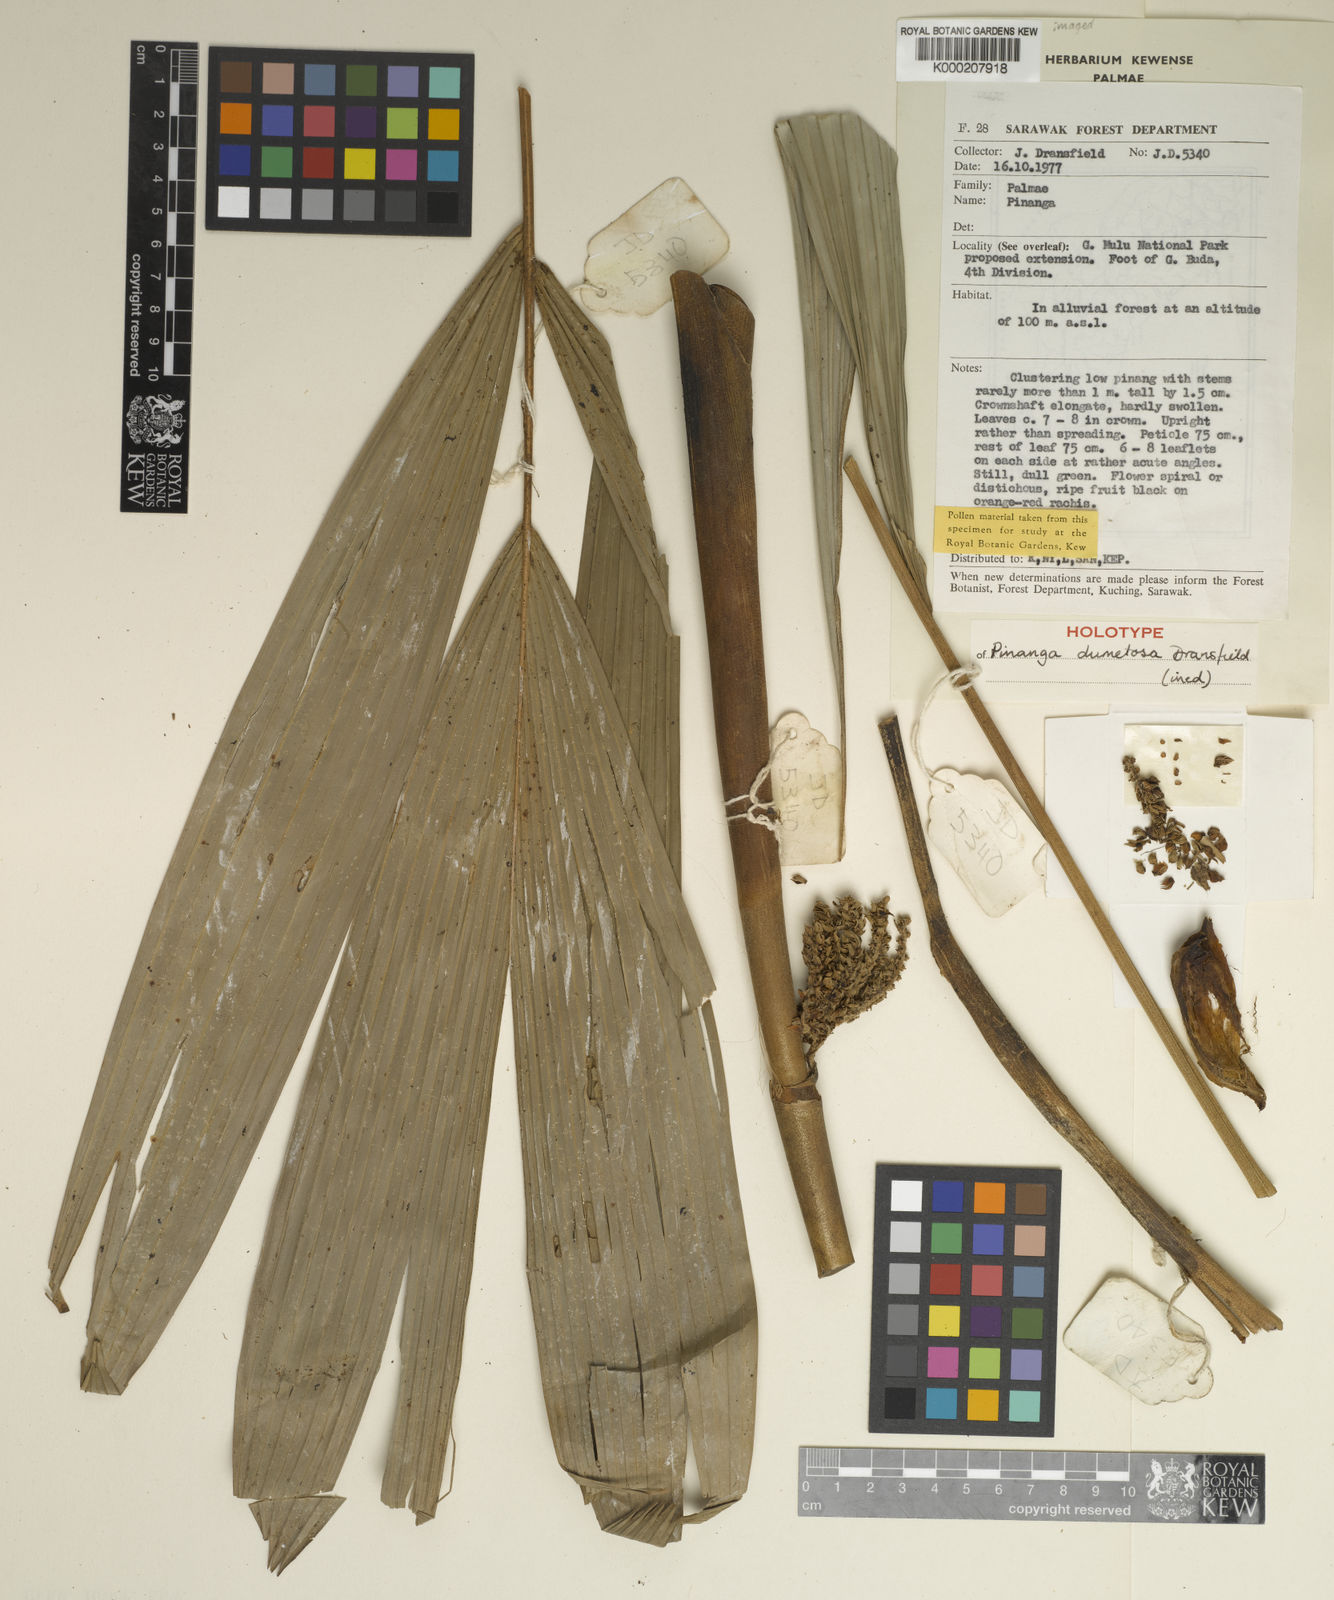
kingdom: Plantae
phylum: Tracheophyta
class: Liliopsida
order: Arecales
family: Arecaceae
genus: Pinanga
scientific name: Pinanga dumetosa
